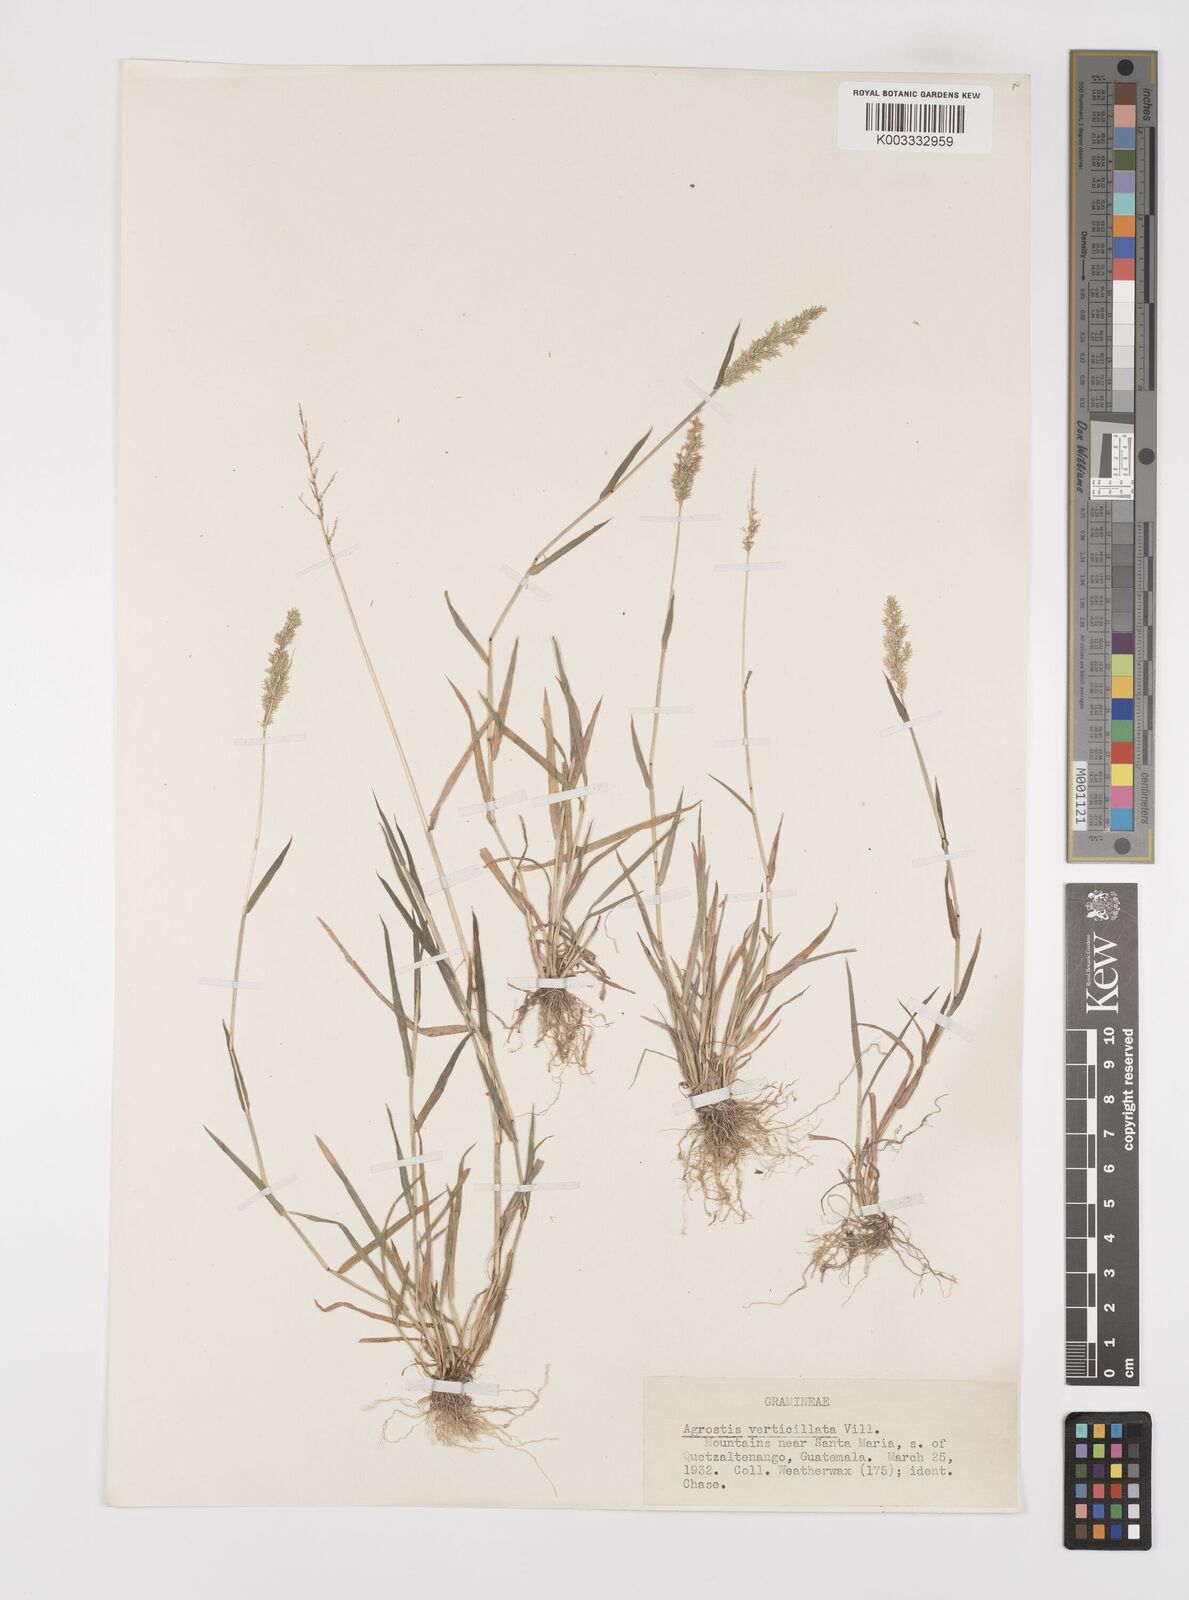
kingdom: Plantae
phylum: Tracheophyta
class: Liliopsida
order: Poales
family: Poaceae
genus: Polypogon
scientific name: Polypogon viridis
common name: Water bent
